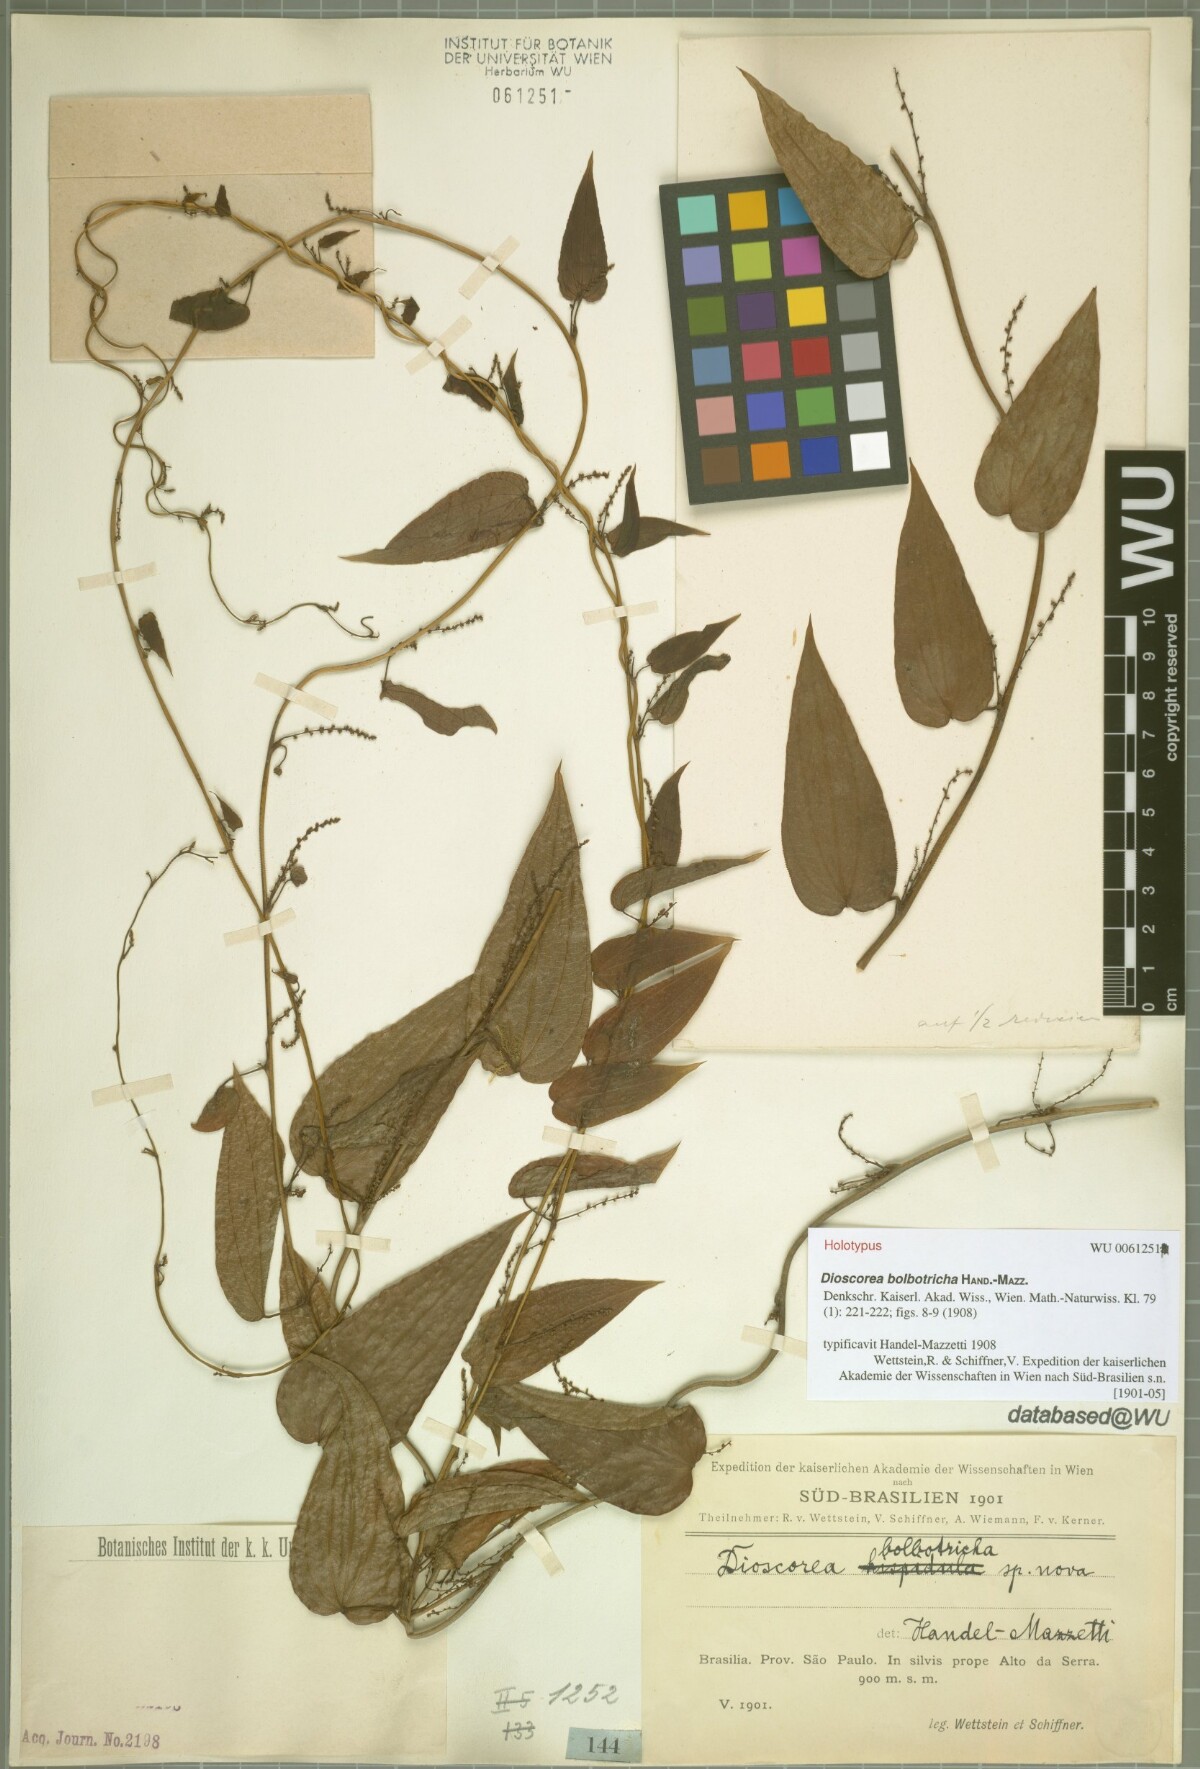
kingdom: Plantae
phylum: Tracheophyta
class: Liliopsida
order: Dioscoreales
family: Dioscoreaceae
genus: Dioscorea
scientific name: Dioscorea bolbotricha
